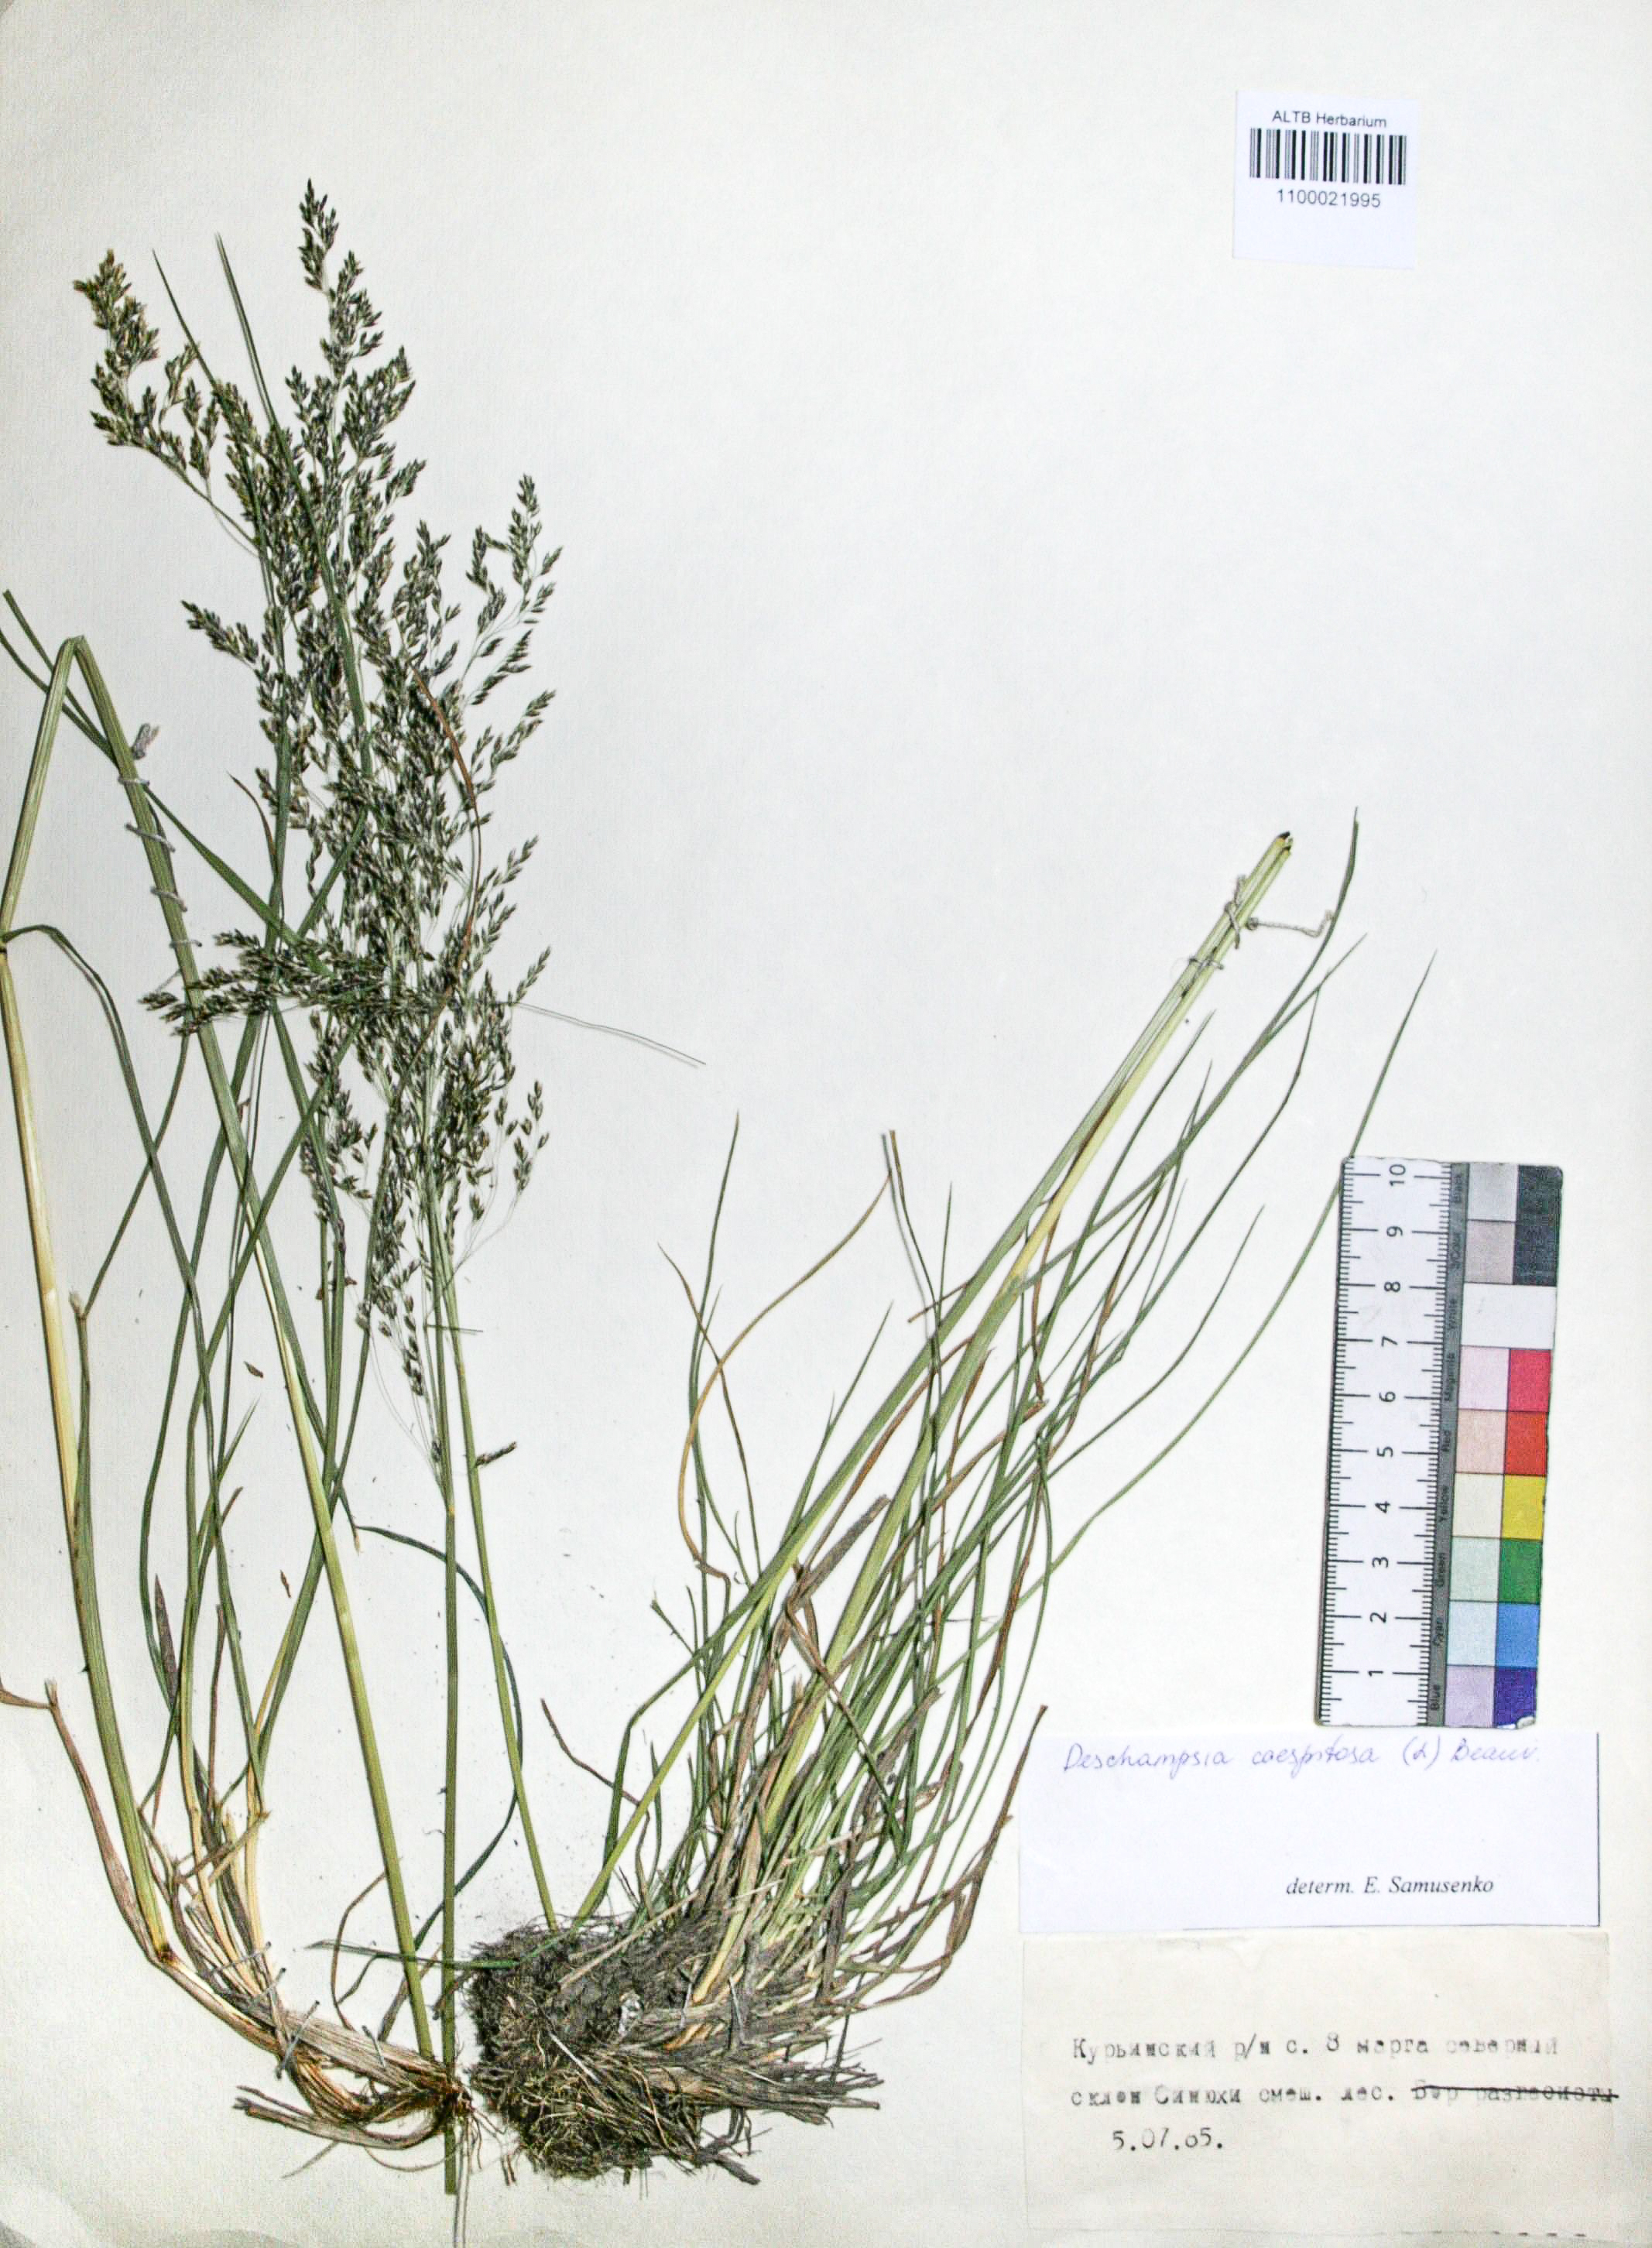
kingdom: Plantae
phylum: Tracheophyta
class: Liliopsida
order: Poales
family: Poaceae
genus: Deschampsia
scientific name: Deschampsia cespitosa
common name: Tufted hair-grass
